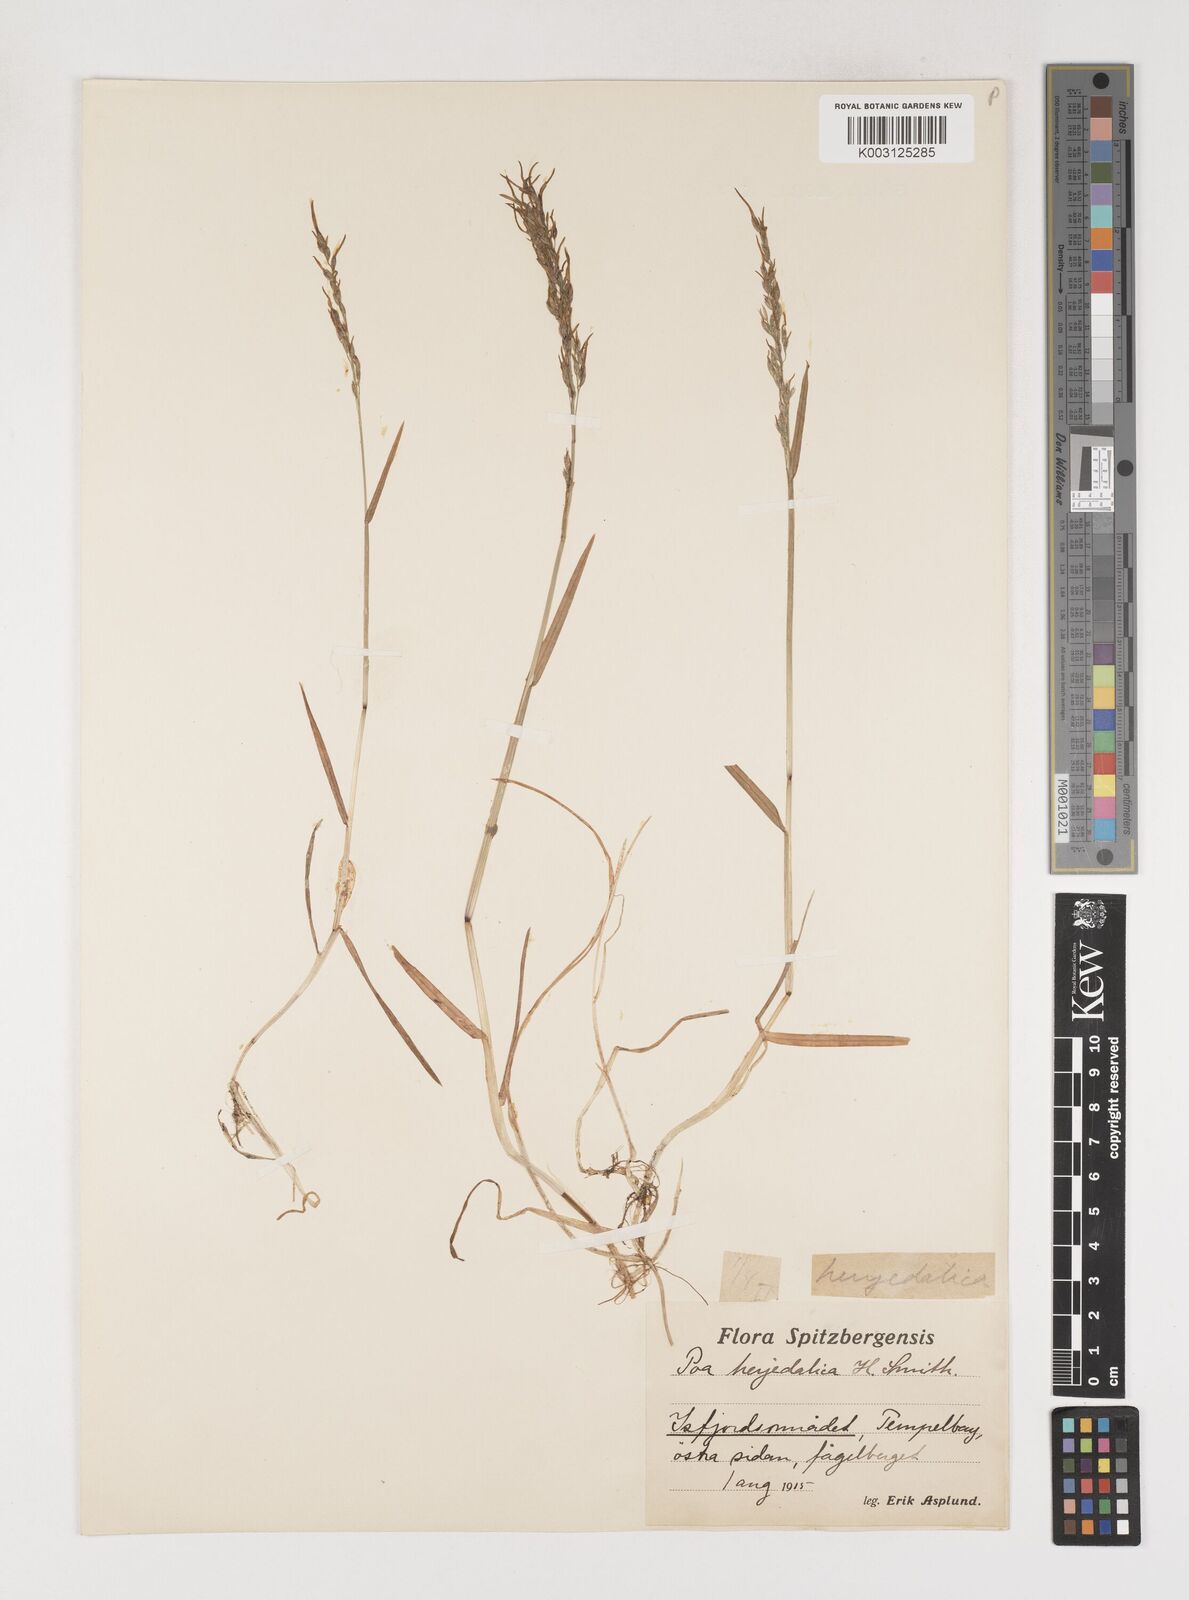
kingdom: Plantae
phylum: Tracheophyta
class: Liliopsida
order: Poales
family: Poaceae
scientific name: Poaceae
